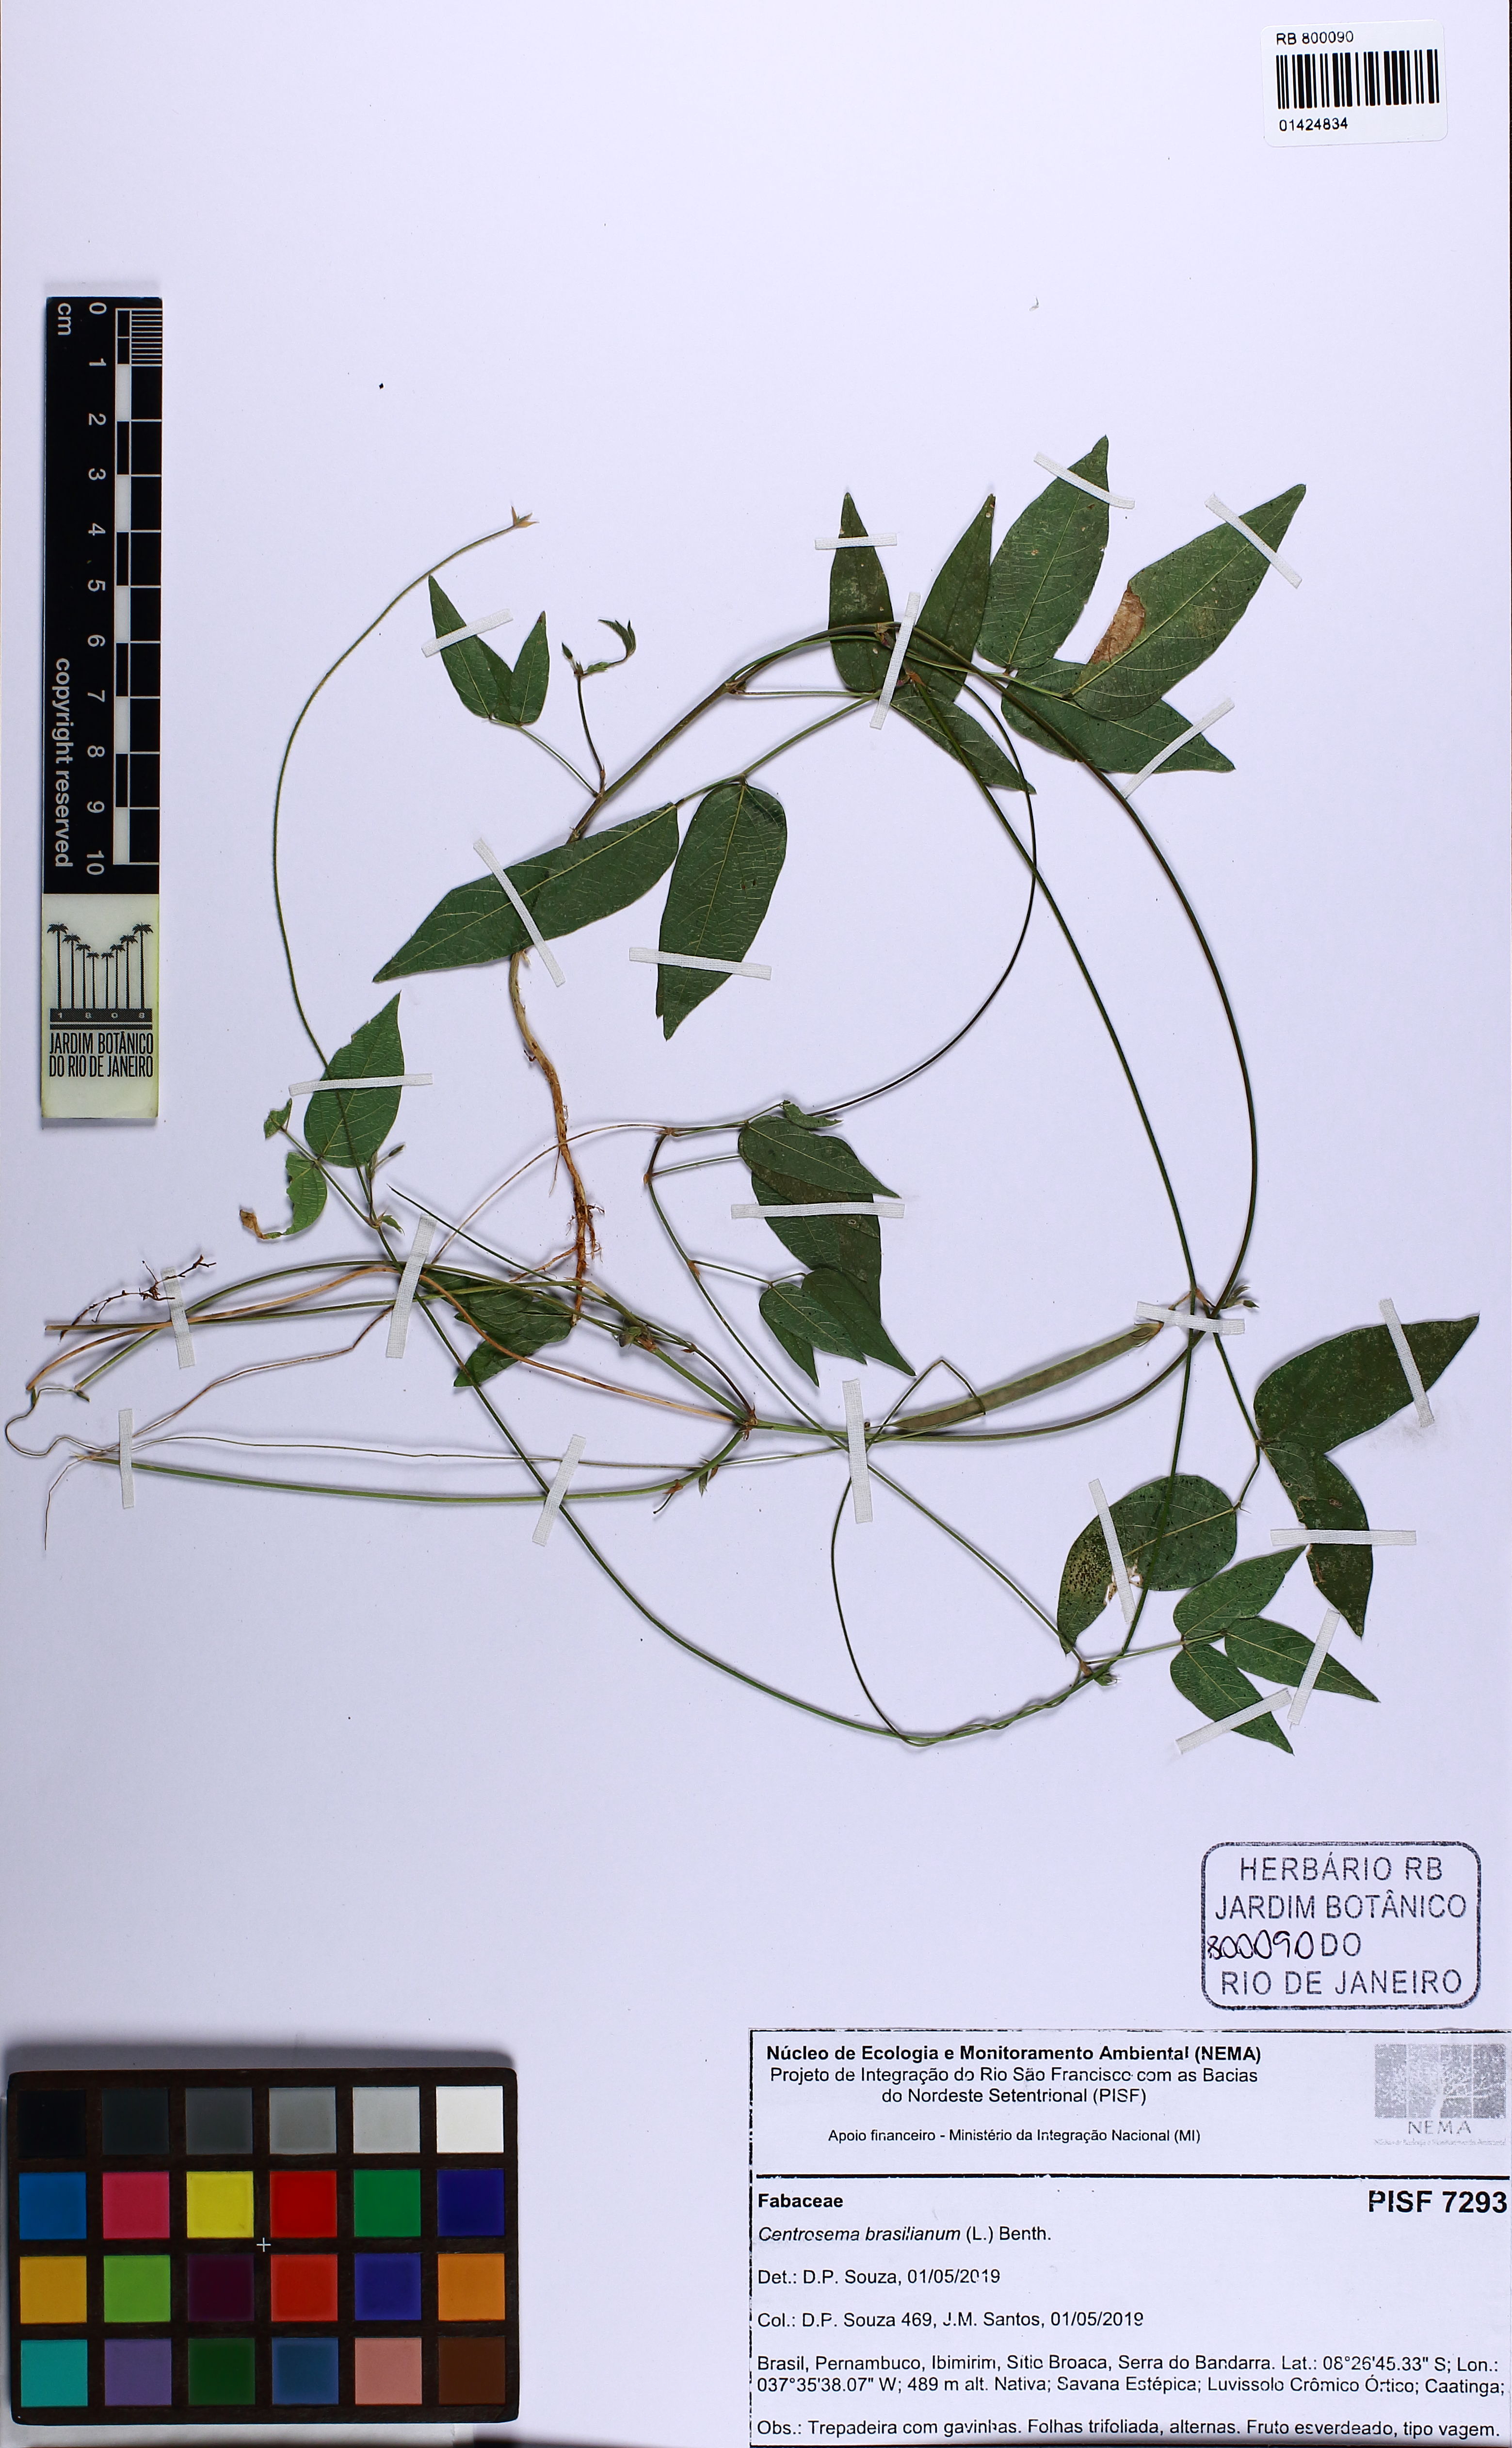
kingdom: Plantae
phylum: Tracheophyta
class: Magnoliopsida
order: Fabales
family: Fabaceae
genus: Centrosema
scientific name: Centrosema brasilianum
